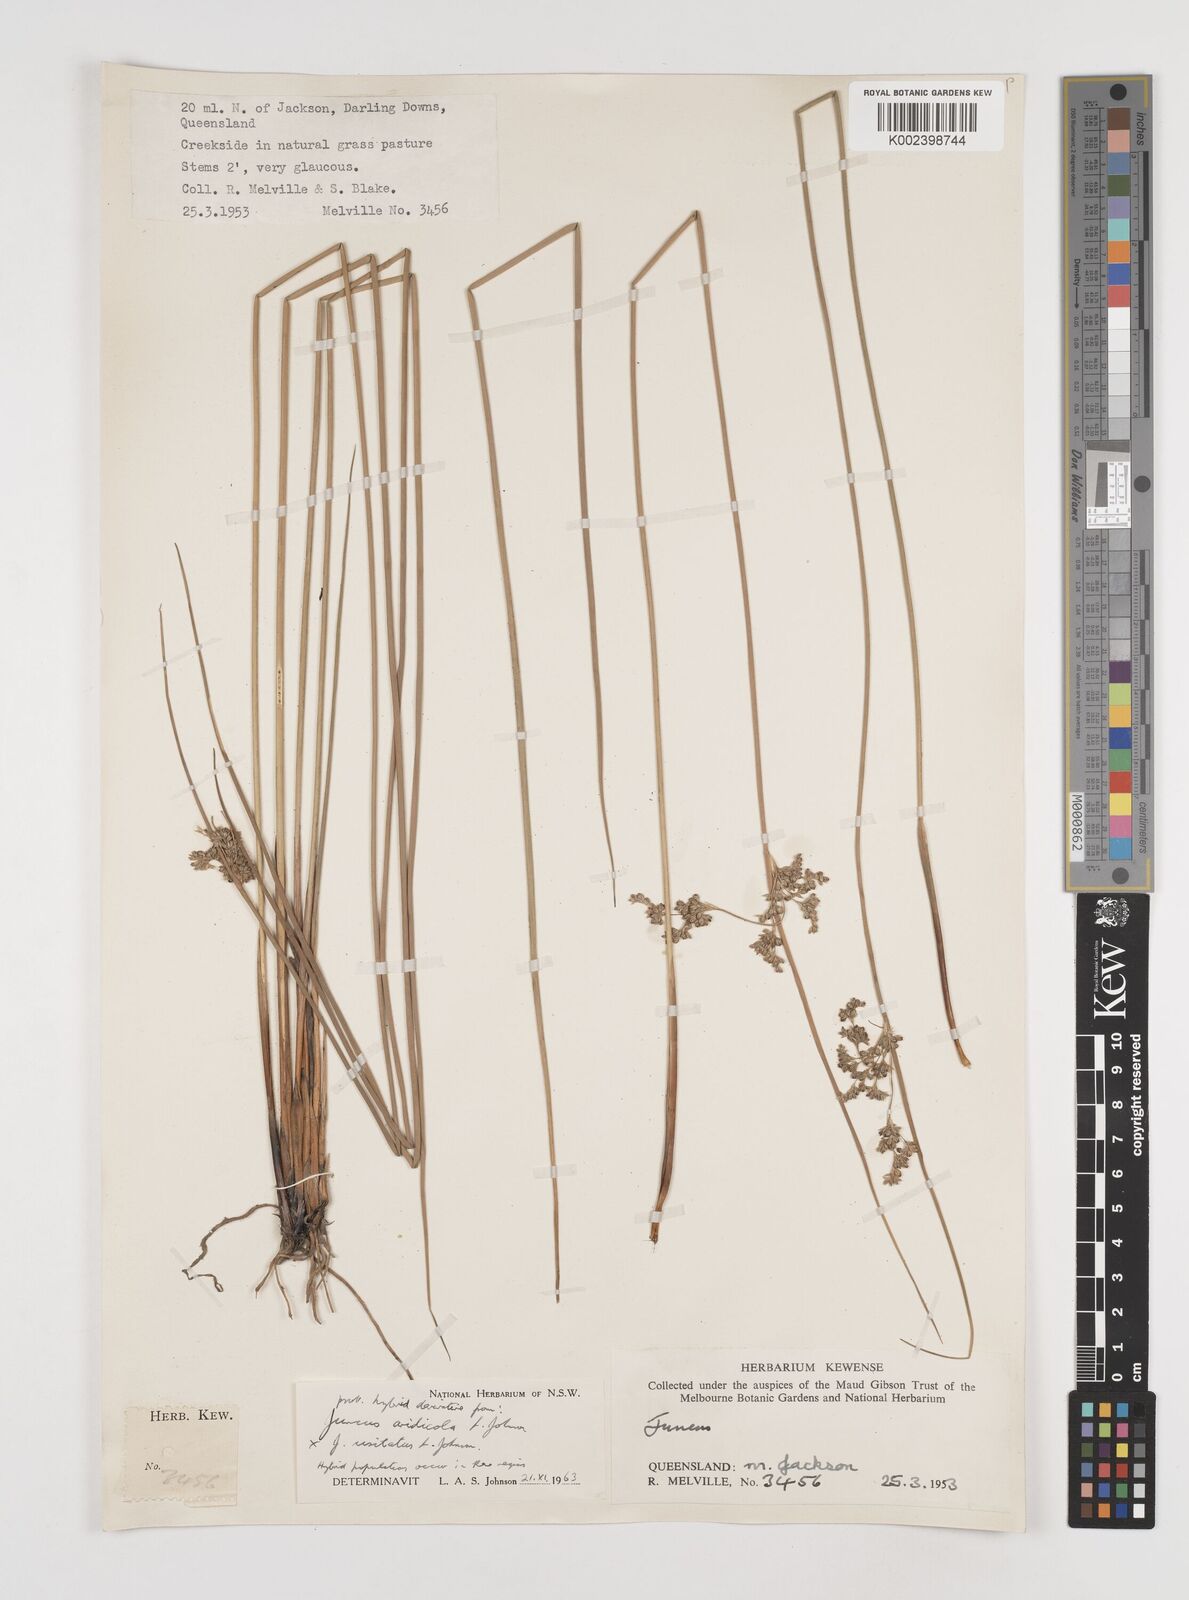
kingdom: Plantae
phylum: Tracheophyta
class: Liliopsida
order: Poales
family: Juncaceae
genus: Juncus
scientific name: Juncus aridicola
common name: Tussock rush
